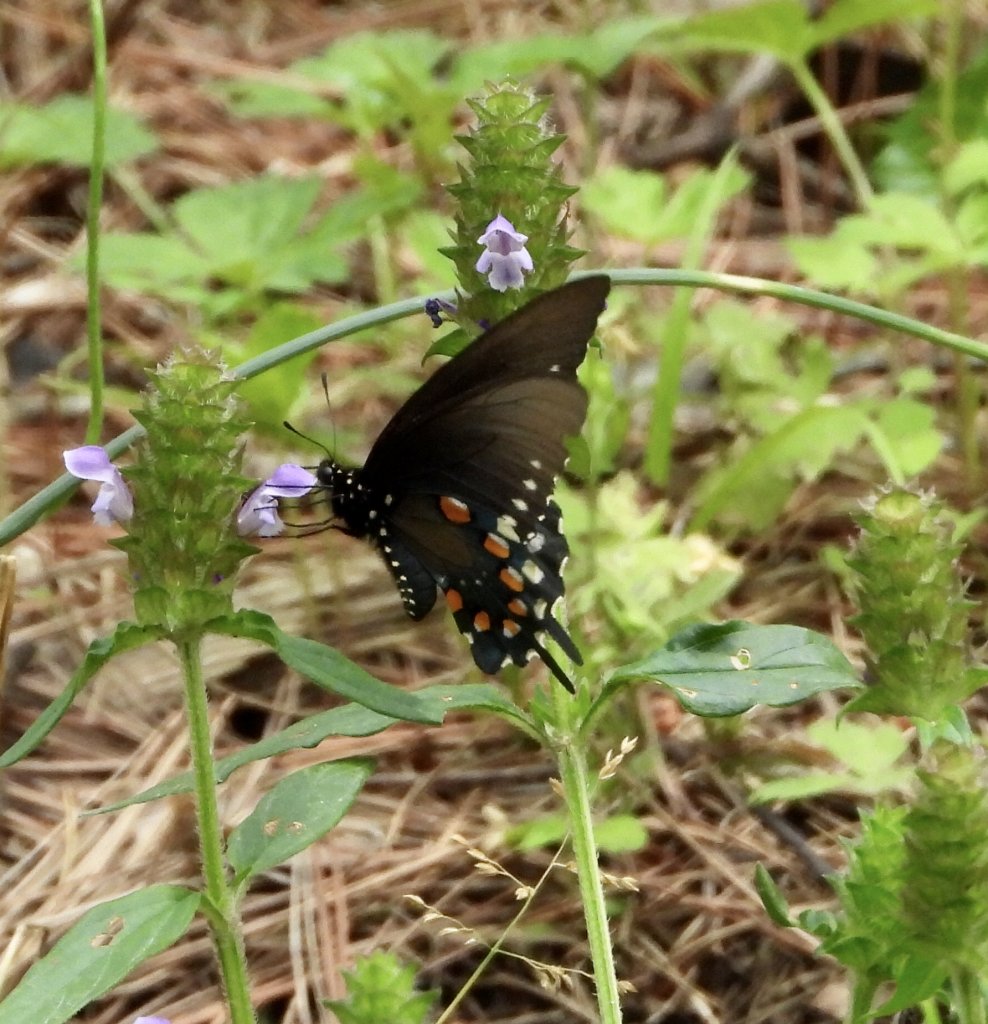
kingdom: Animalia
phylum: Arthropoda
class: Insecta
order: Lepidoptera
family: Papilionidae
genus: Battus
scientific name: Battus philenor
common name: Pipevine Swallowtail
